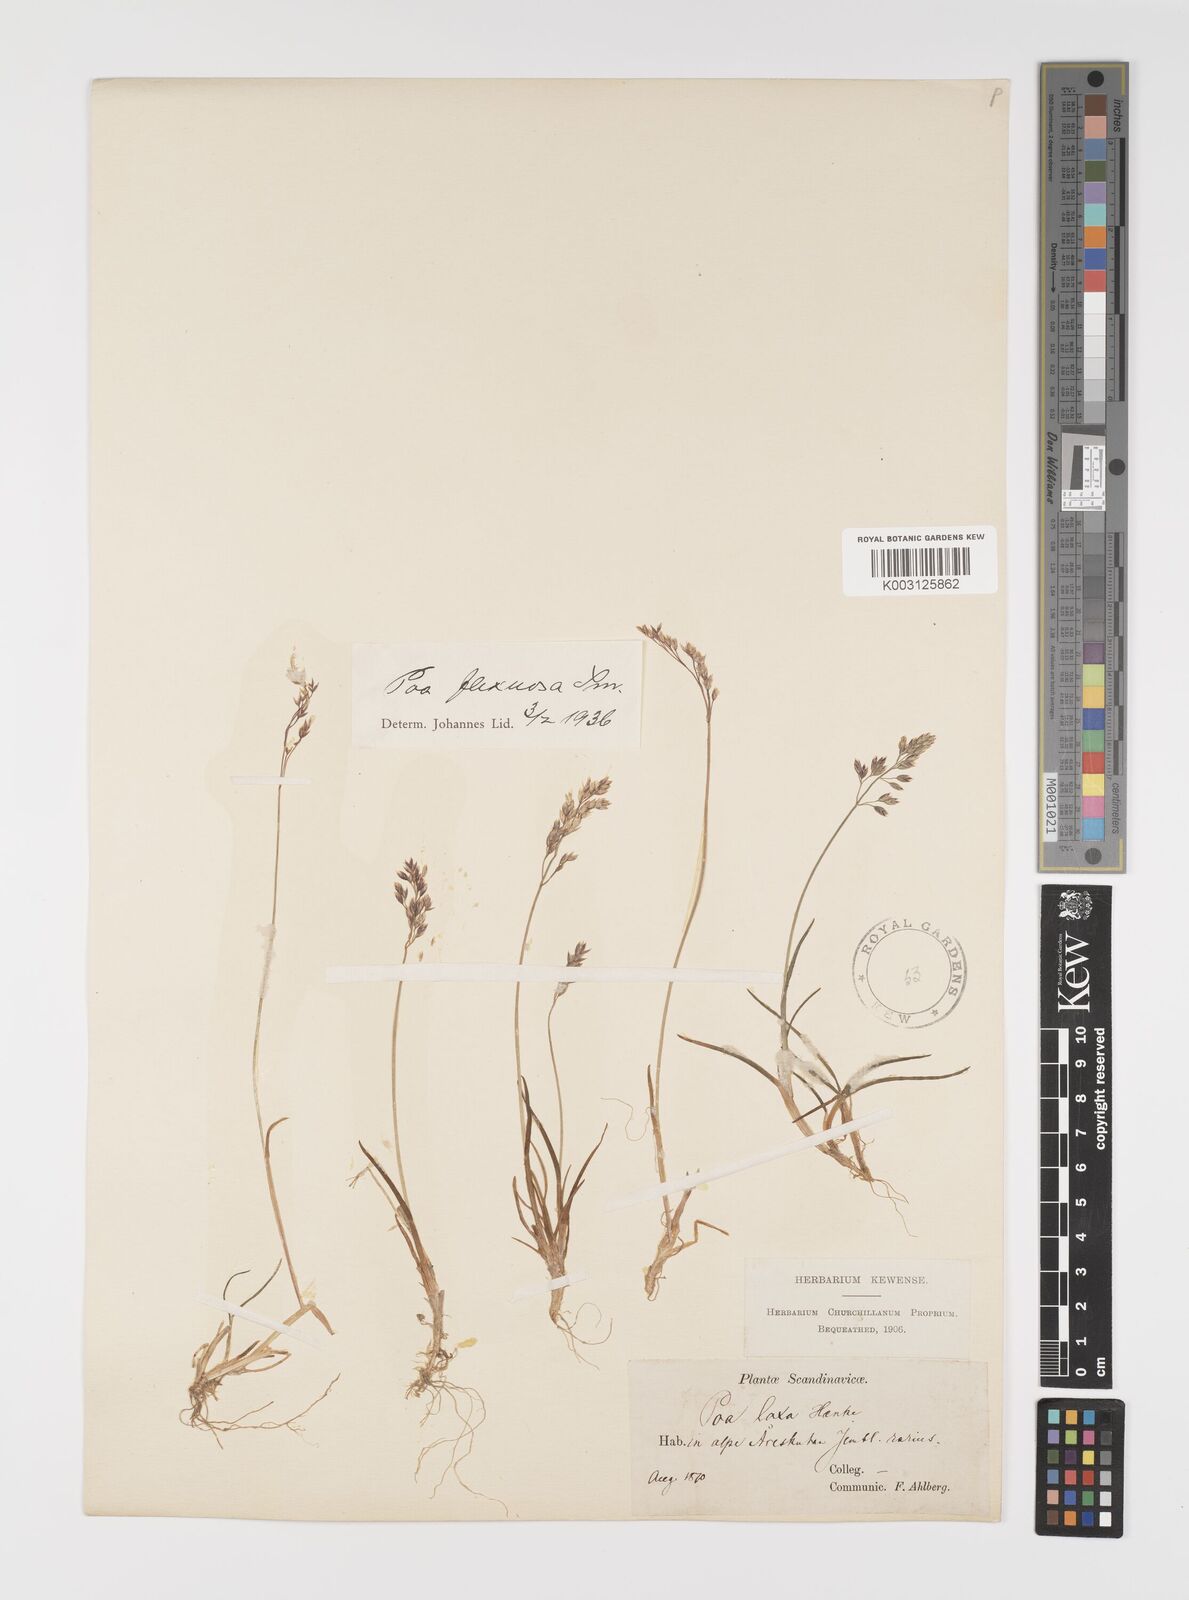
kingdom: Plantae
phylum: Tracheophyta
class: Liliopsida
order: Poales
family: Poaceae
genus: Eragrostis
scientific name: Eragrostis cilianensis
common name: Stinkgrass
